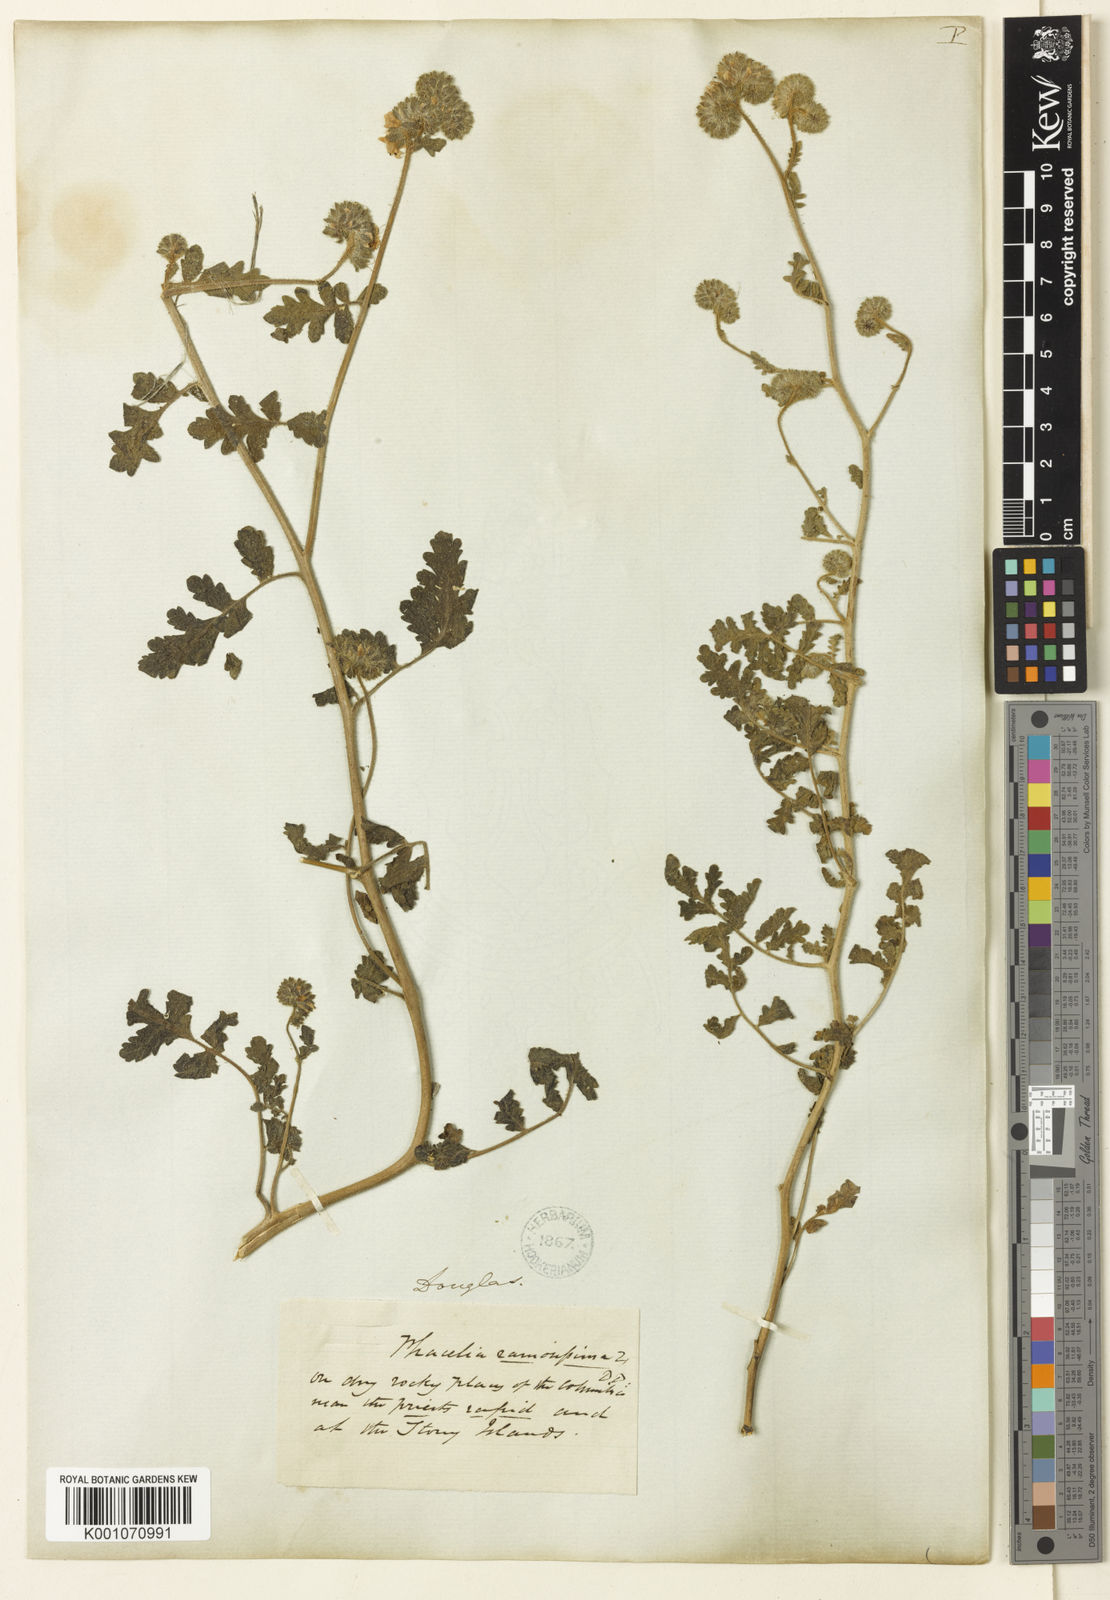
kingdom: Plantae
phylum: Tracheophyta
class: Magnoliopsida
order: Boraginales
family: Hydrophyllaceae
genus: Phacelia
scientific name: Phacelia ramosissima
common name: Branching phacelia
